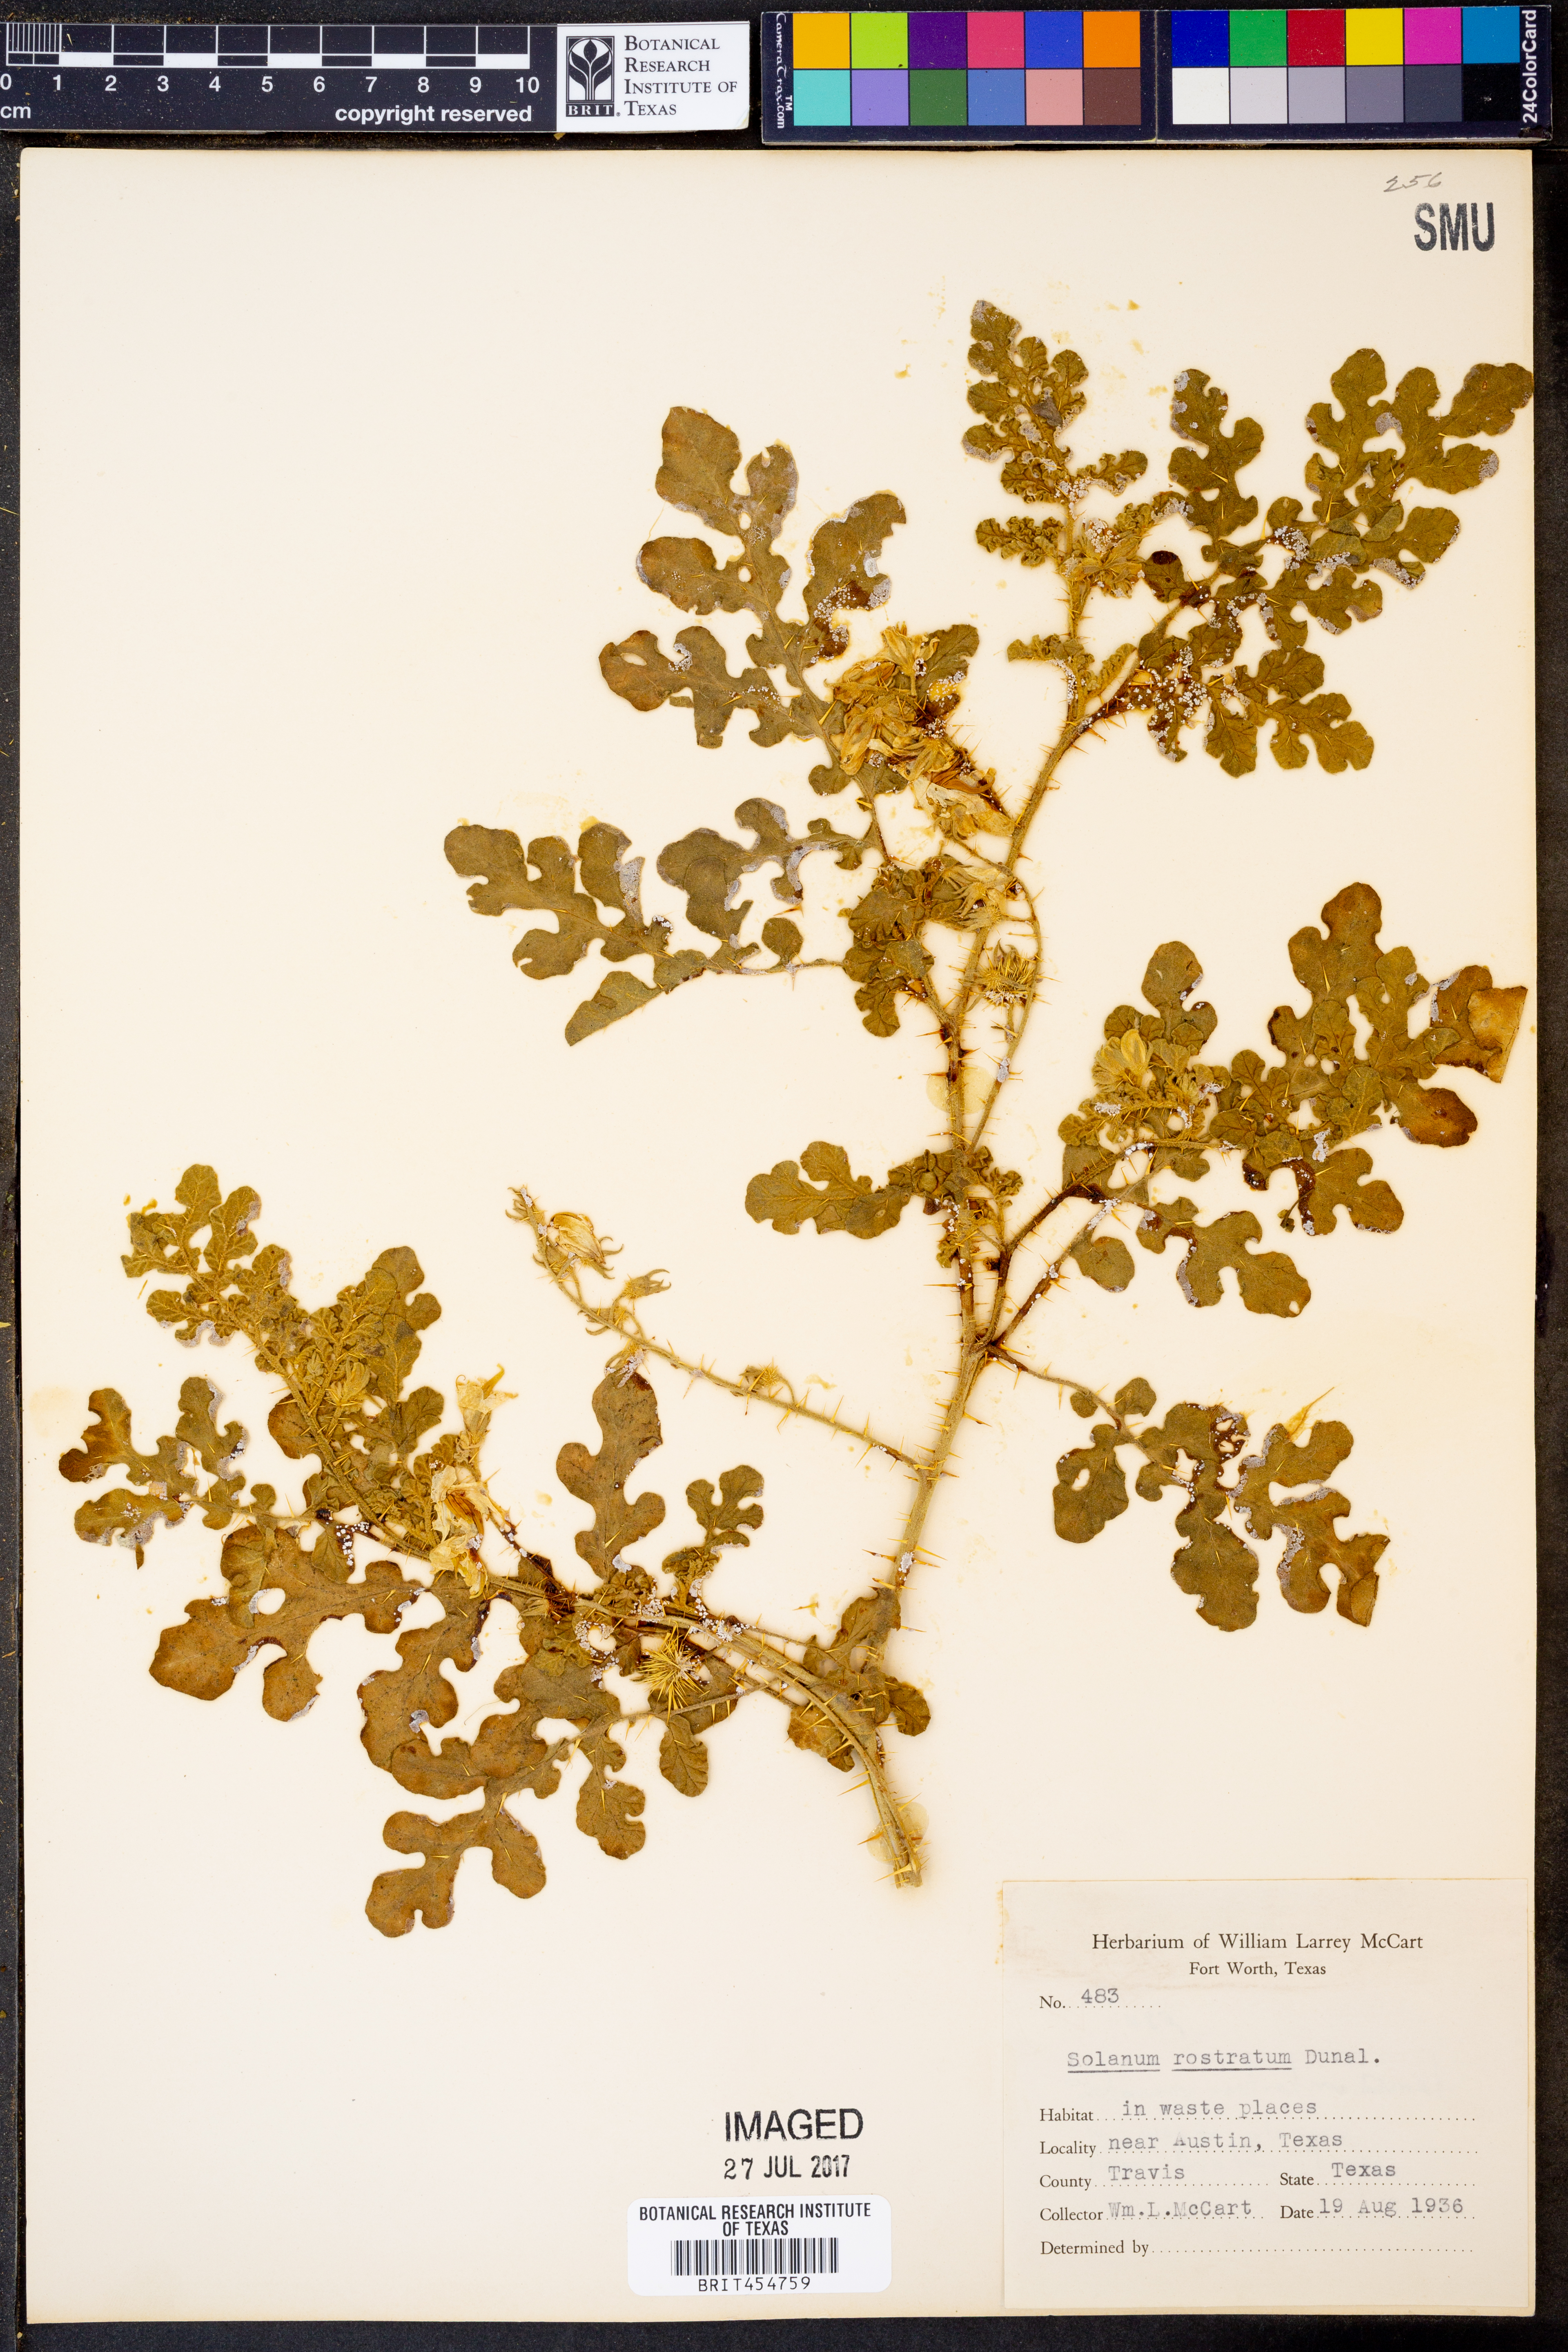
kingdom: Plantae
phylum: Tracheophyta
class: Magnoliopsida
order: Solanales
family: Solanaceae
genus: Solanum
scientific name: Solanum angustifolium
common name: Buffalobur nightshade
